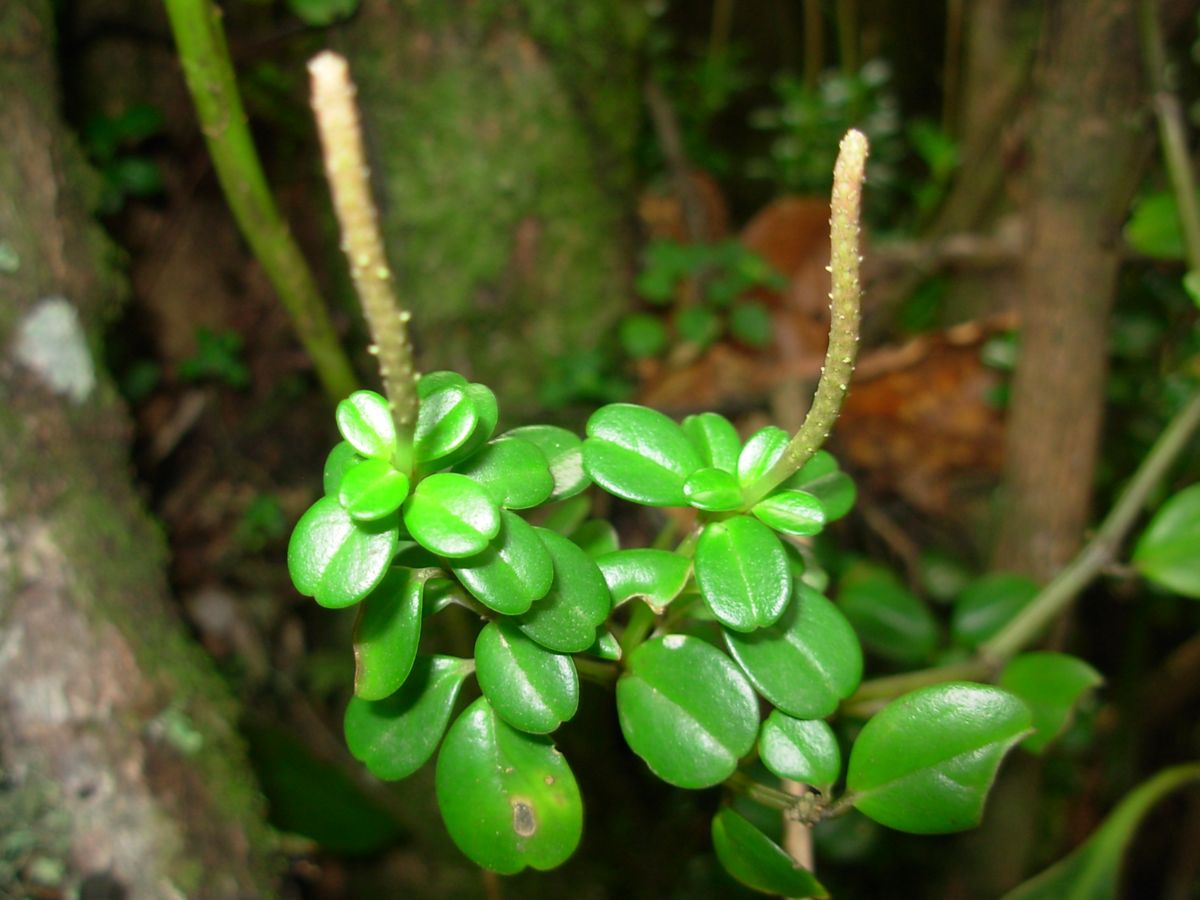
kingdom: Plantae
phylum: Tracheophyta
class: Magnoliopsida
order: Piperales
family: Piperaceae
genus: Peperomia
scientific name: Peperomia quadrifolia
